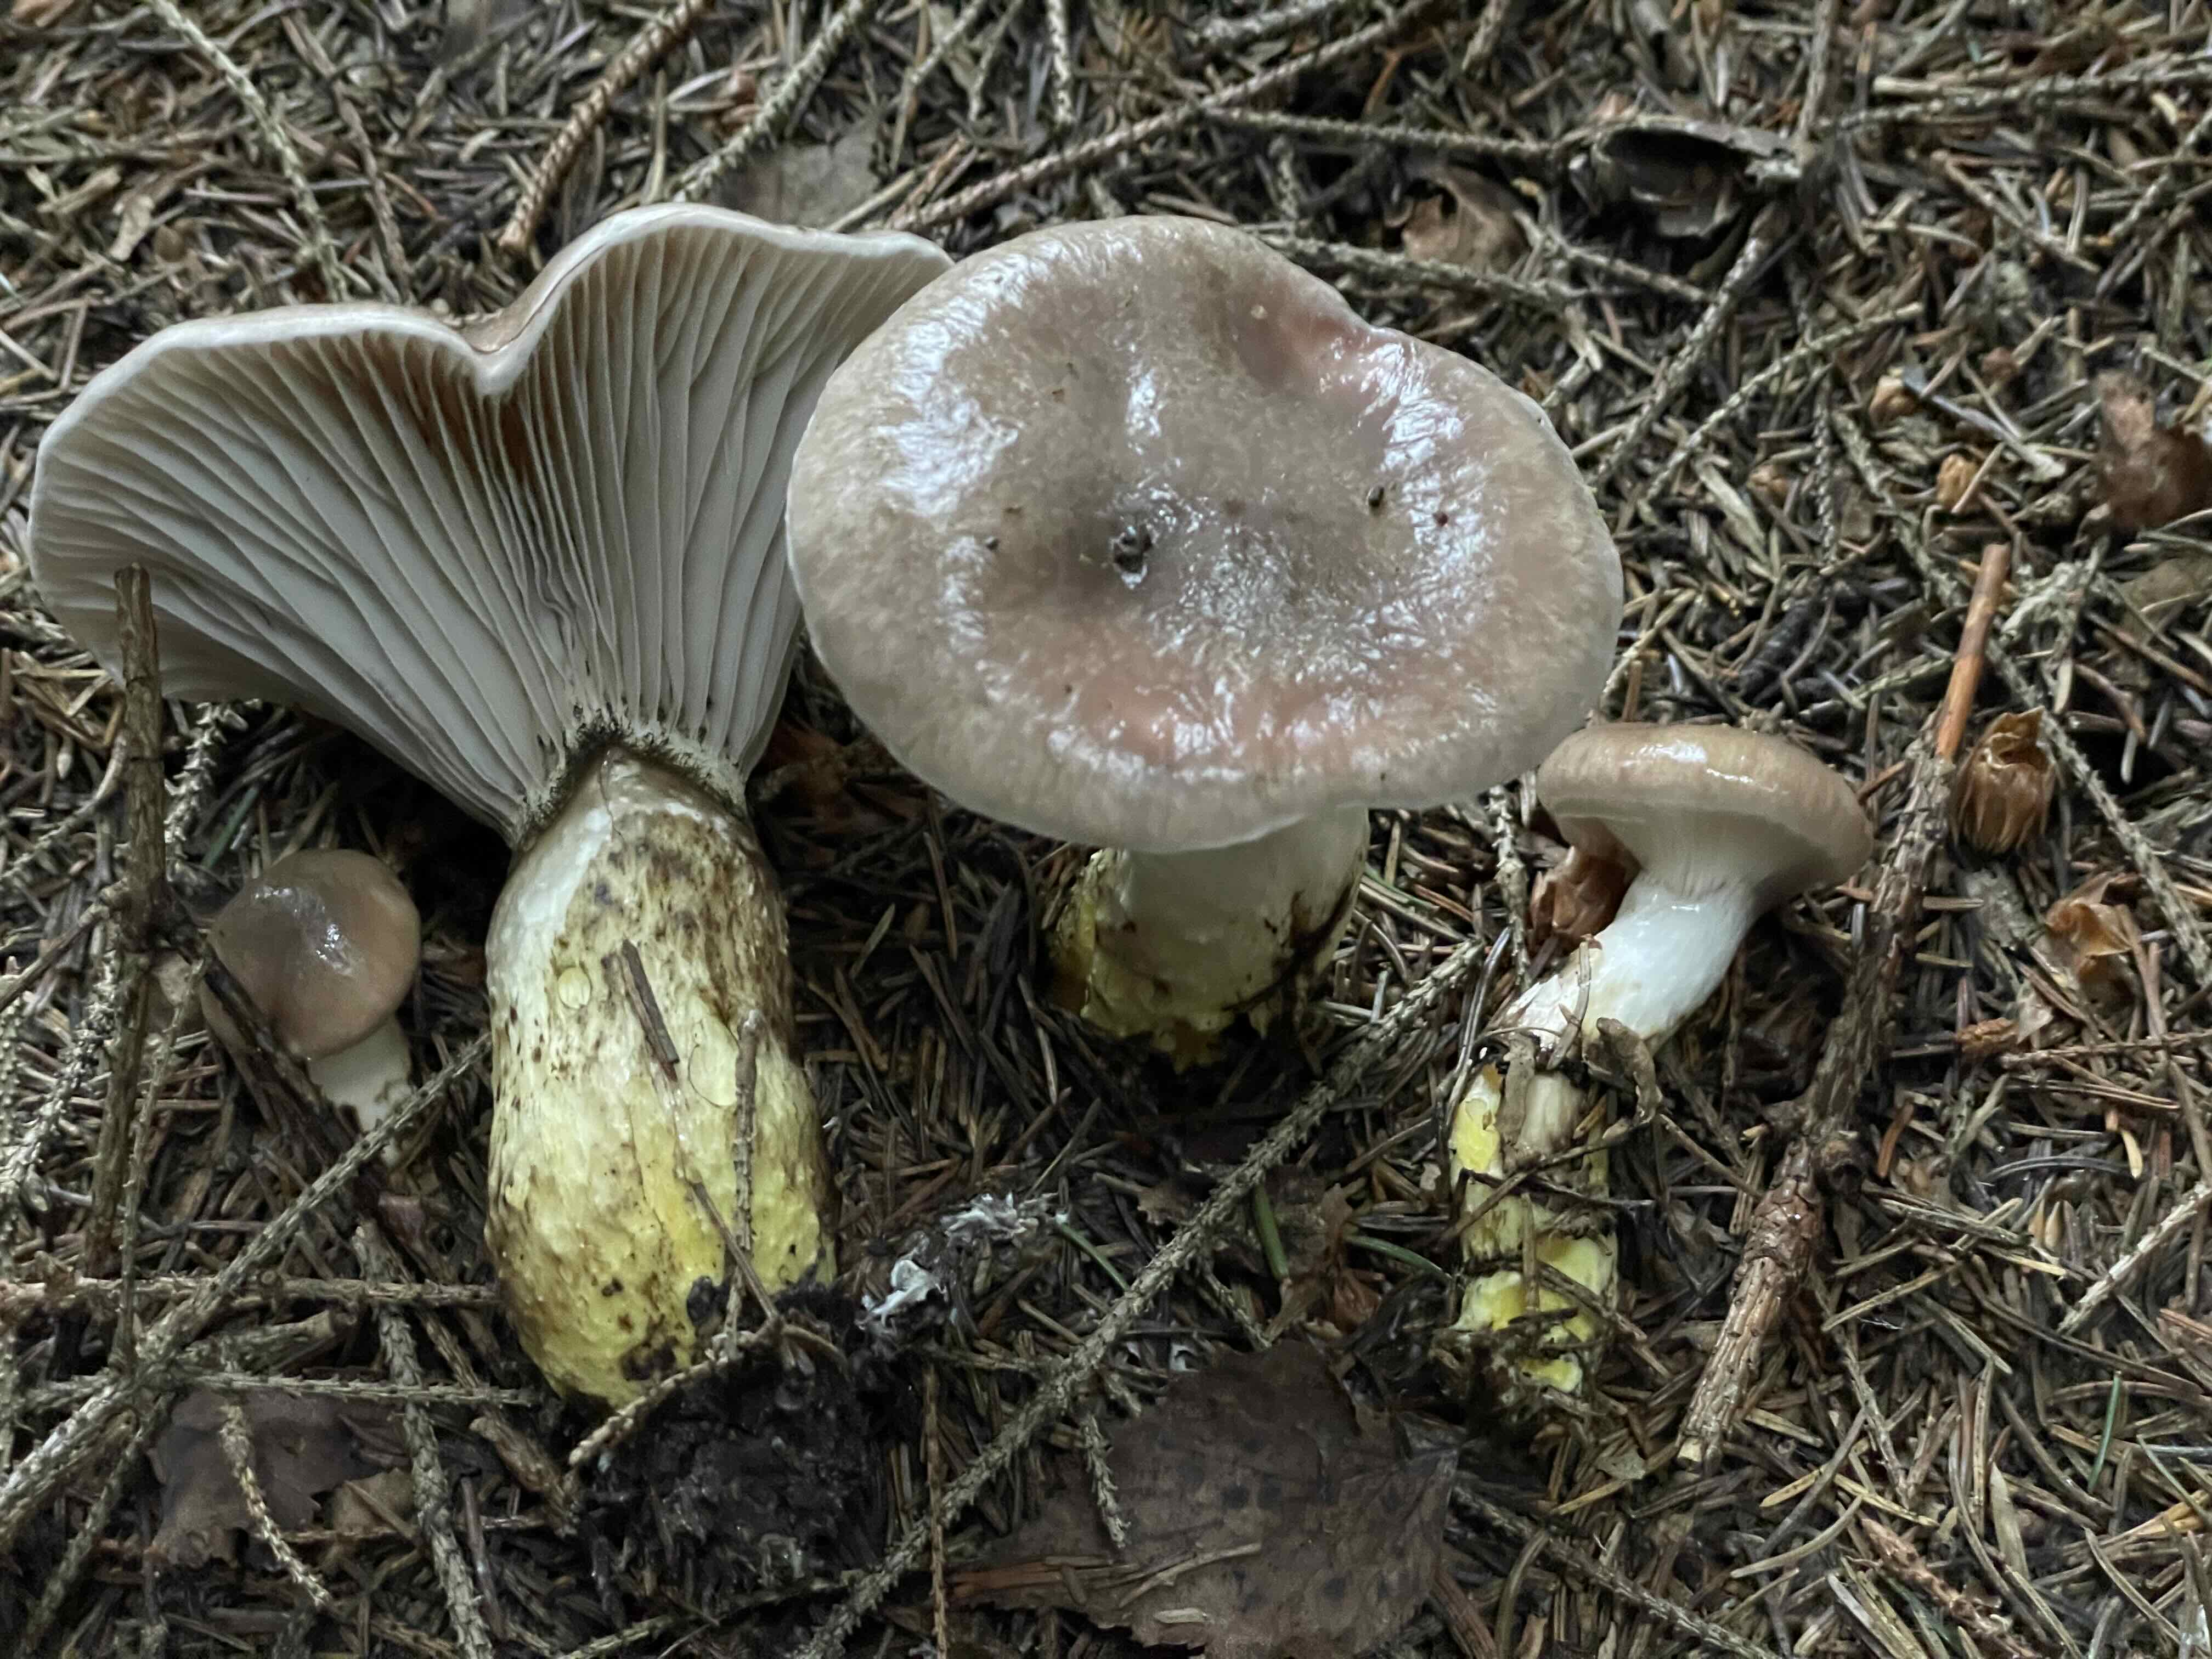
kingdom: Fungi
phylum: Basidiomycota
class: Agaricomycetes
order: Boletales
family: Gomphidiaceae
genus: Gomphidius
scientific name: Gomphidius glutinosus
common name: grå slimslør
